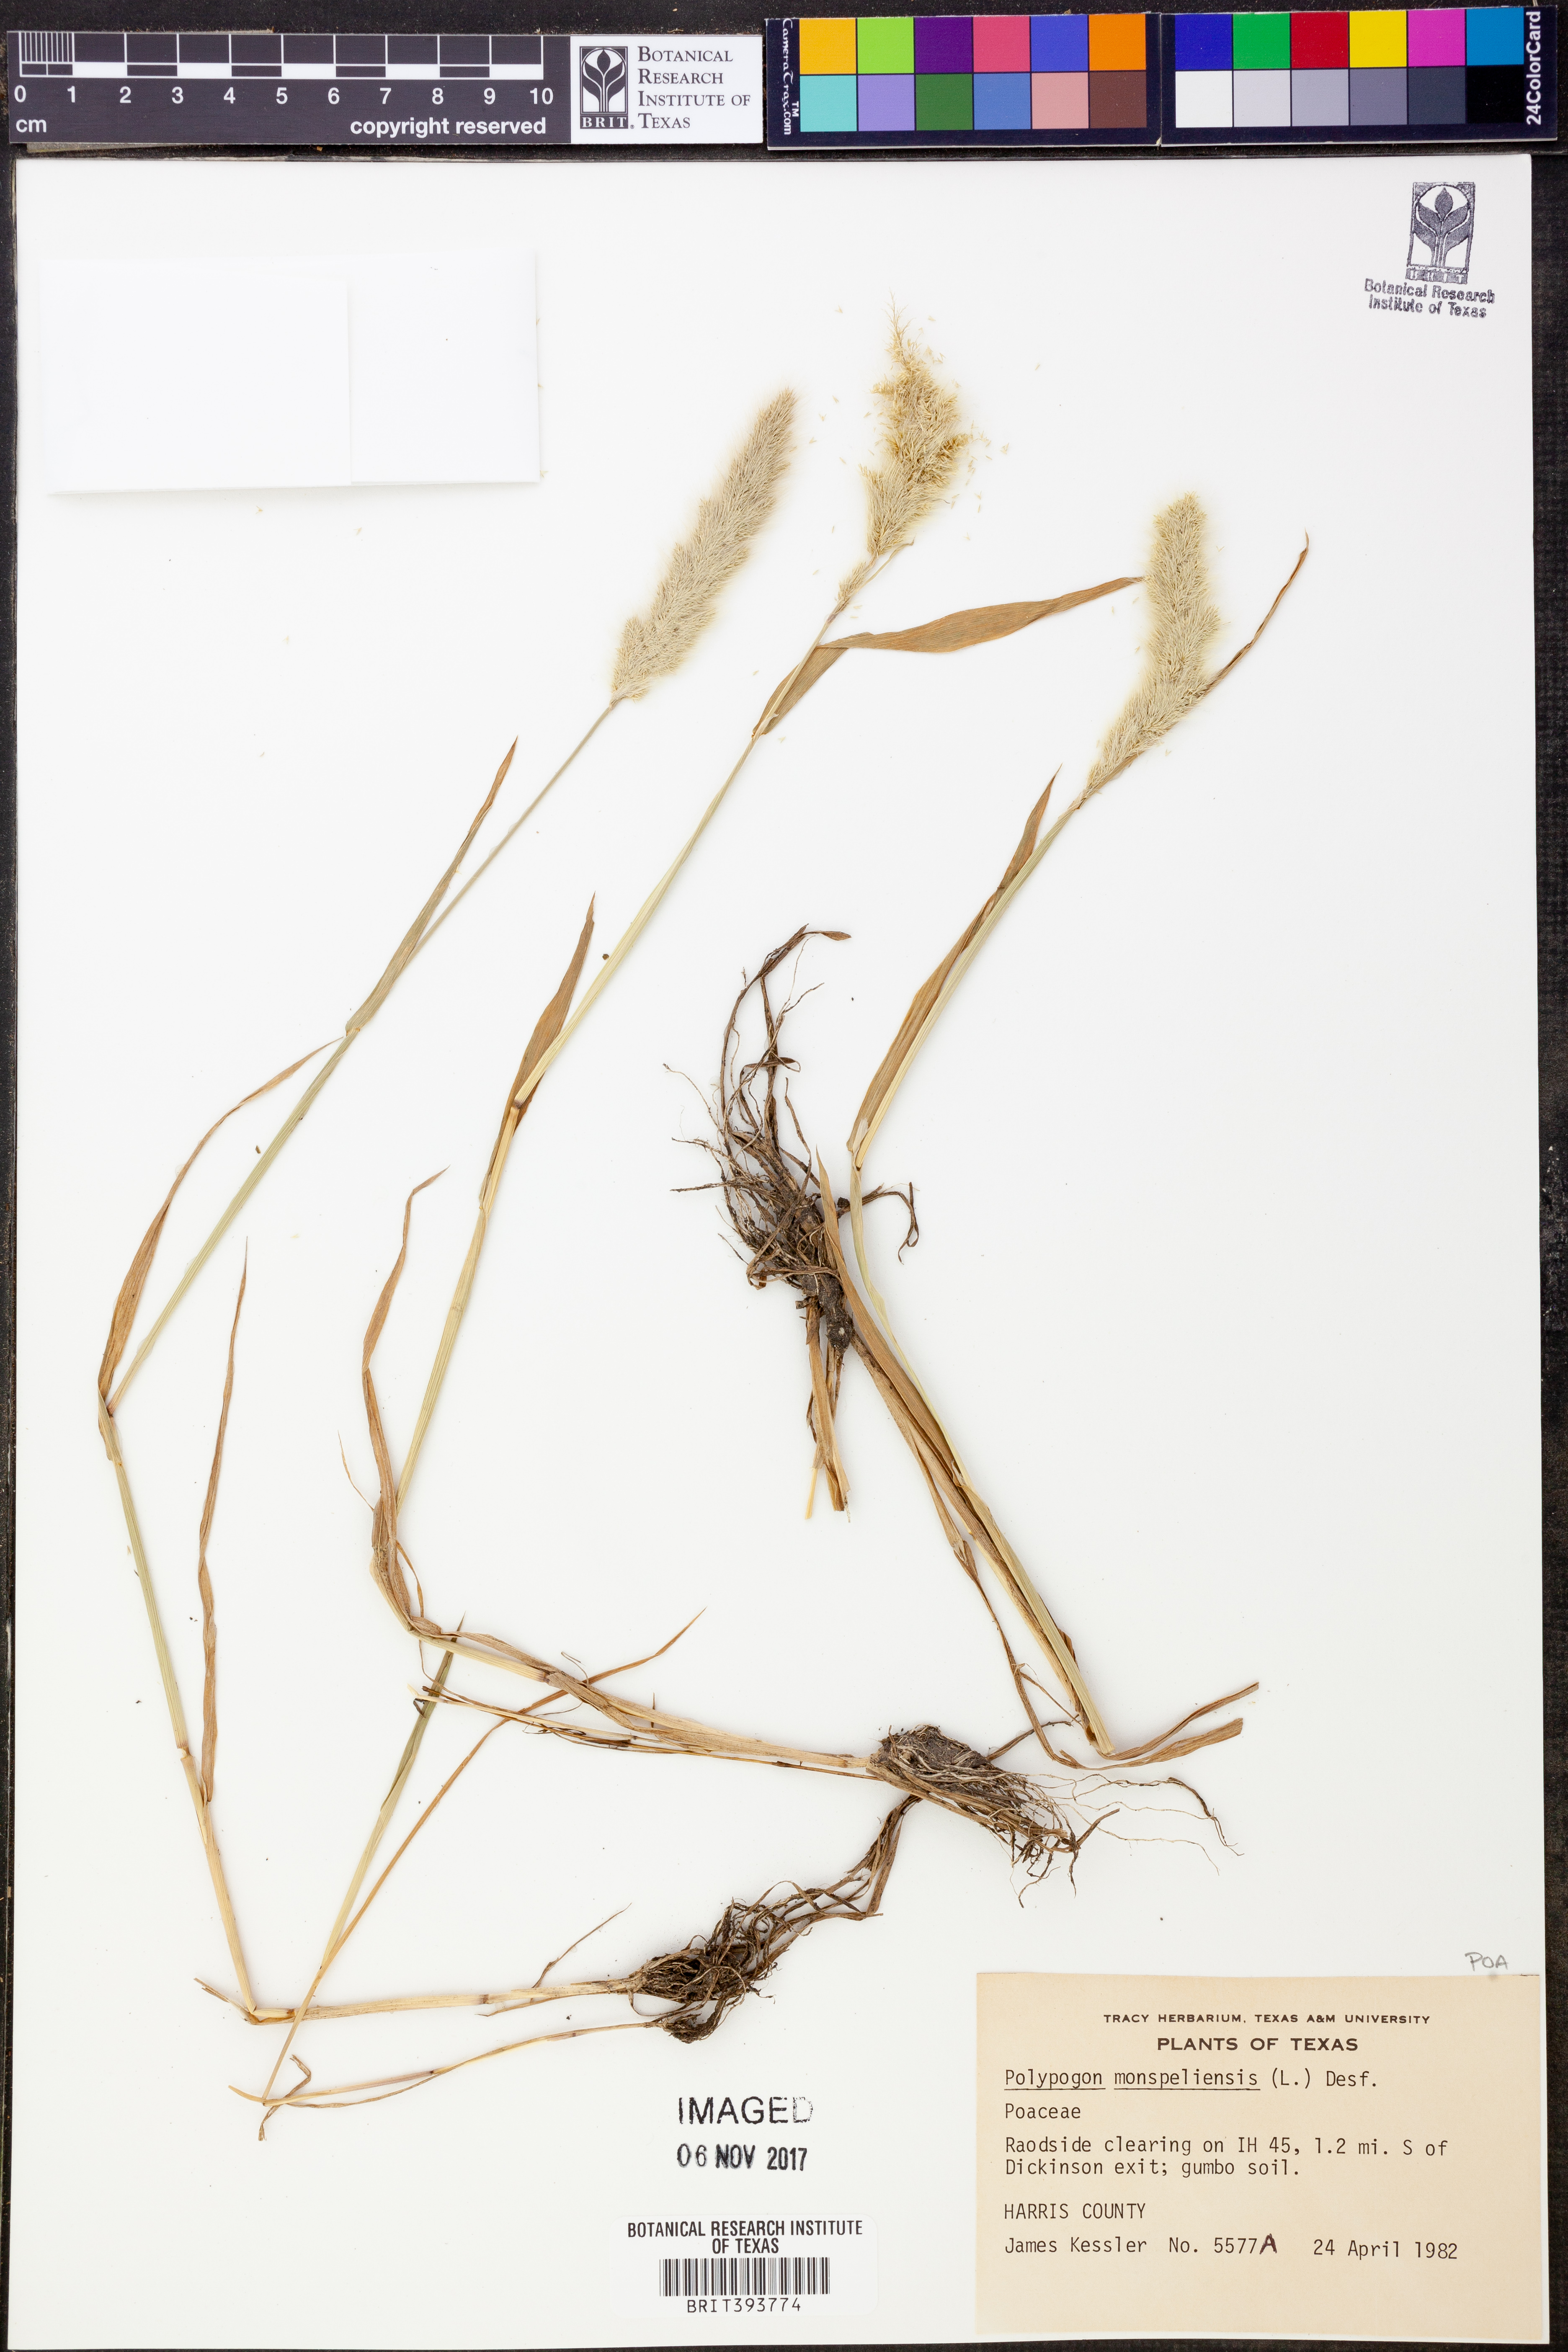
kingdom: Plantae
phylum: Tracheophyta
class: Liliopsida
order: Poales
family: Poaceae
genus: Polypogon
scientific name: Polypogon monspeliensis
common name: Annual rabbitsfoot grass
